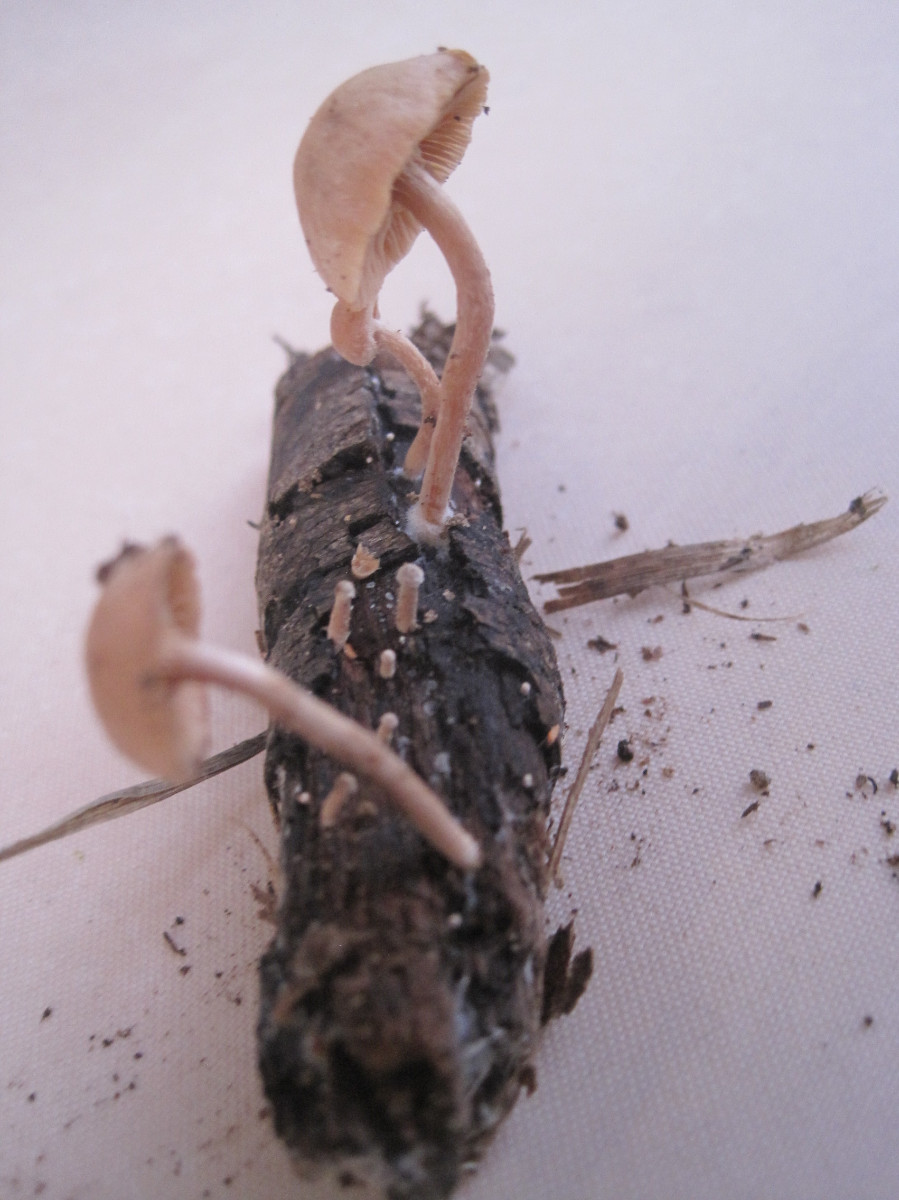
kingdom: Fungi
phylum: Basidiomycota
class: Agaricomycetes
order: Agaricales
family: Tubariaceae
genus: Tubaria
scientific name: Tubaria furfuracea
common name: kliddet fnughat
